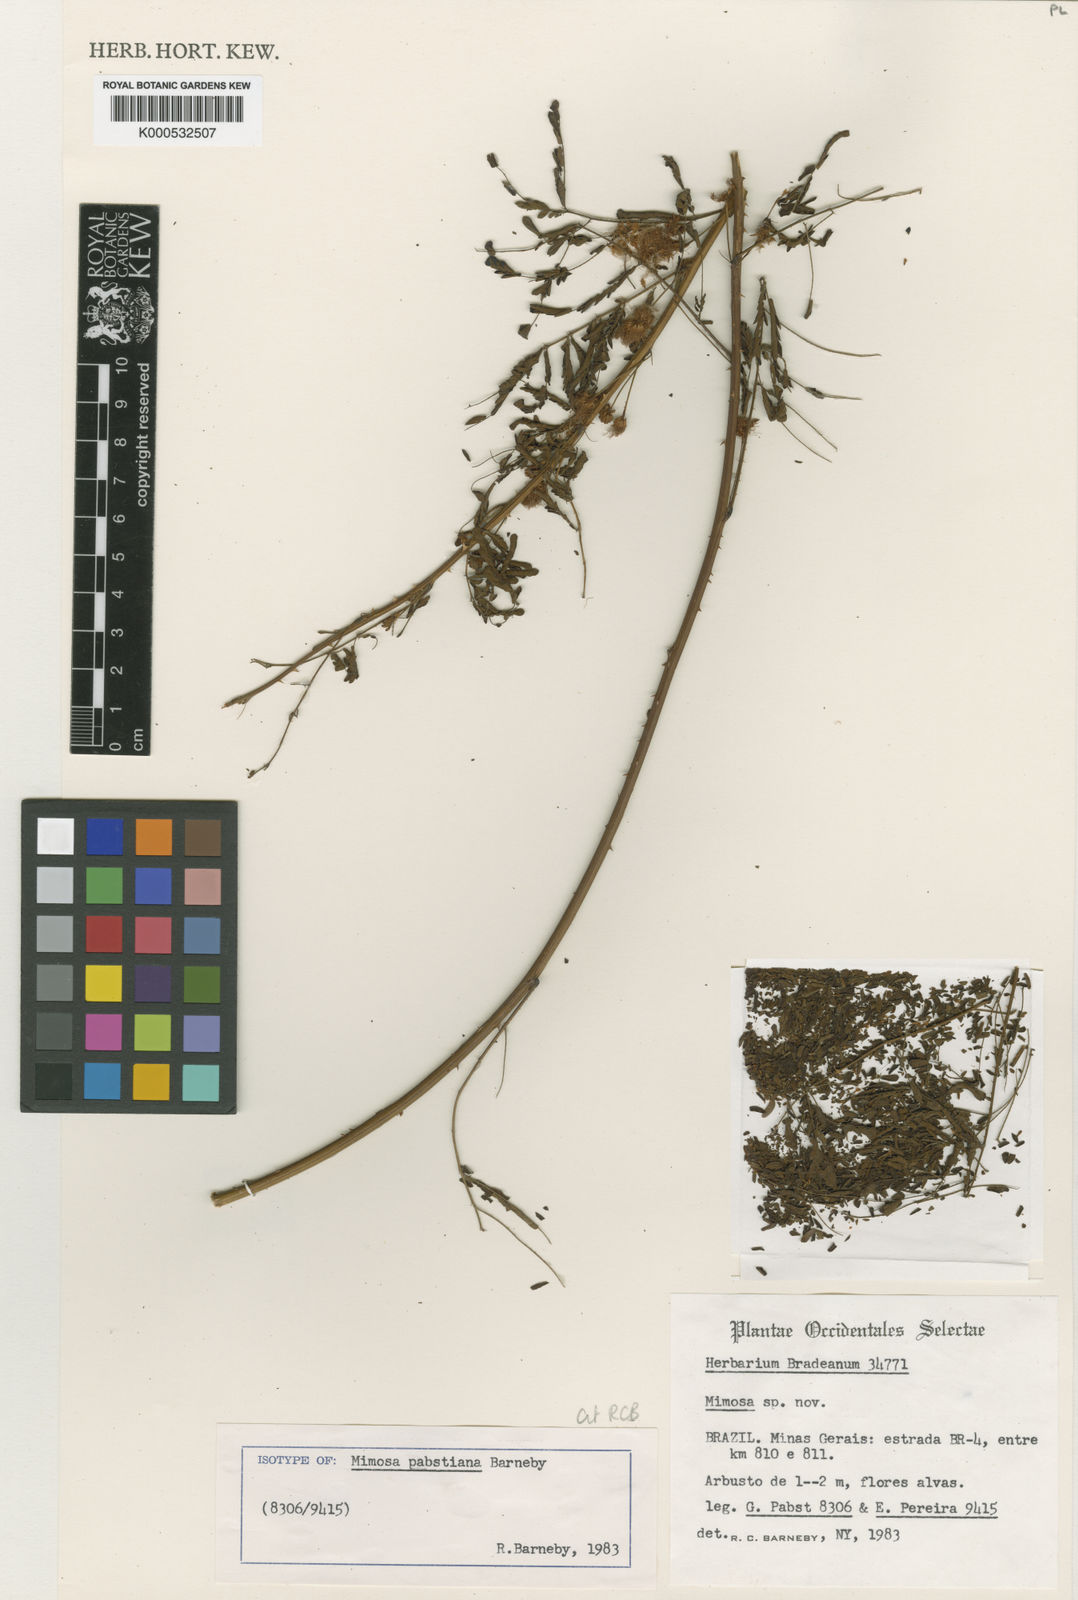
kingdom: Plantae
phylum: Tracheophyta
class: Magnoliopsida
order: Fabales
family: Fabaceae
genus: Mimosa
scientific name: Mimosa pabstiana
